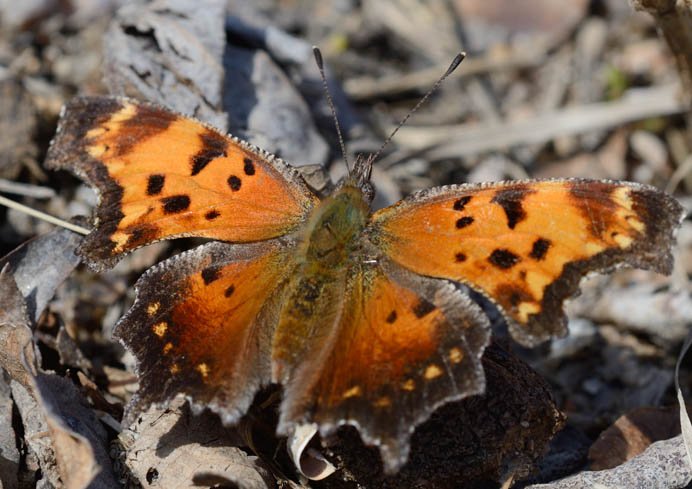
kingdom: Animalia
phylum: Arthropoda
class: Insecta
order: Lepidoptera
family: Nymphalidae
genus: Polygonia
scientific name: Polygonia progne
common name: Gray Comma
